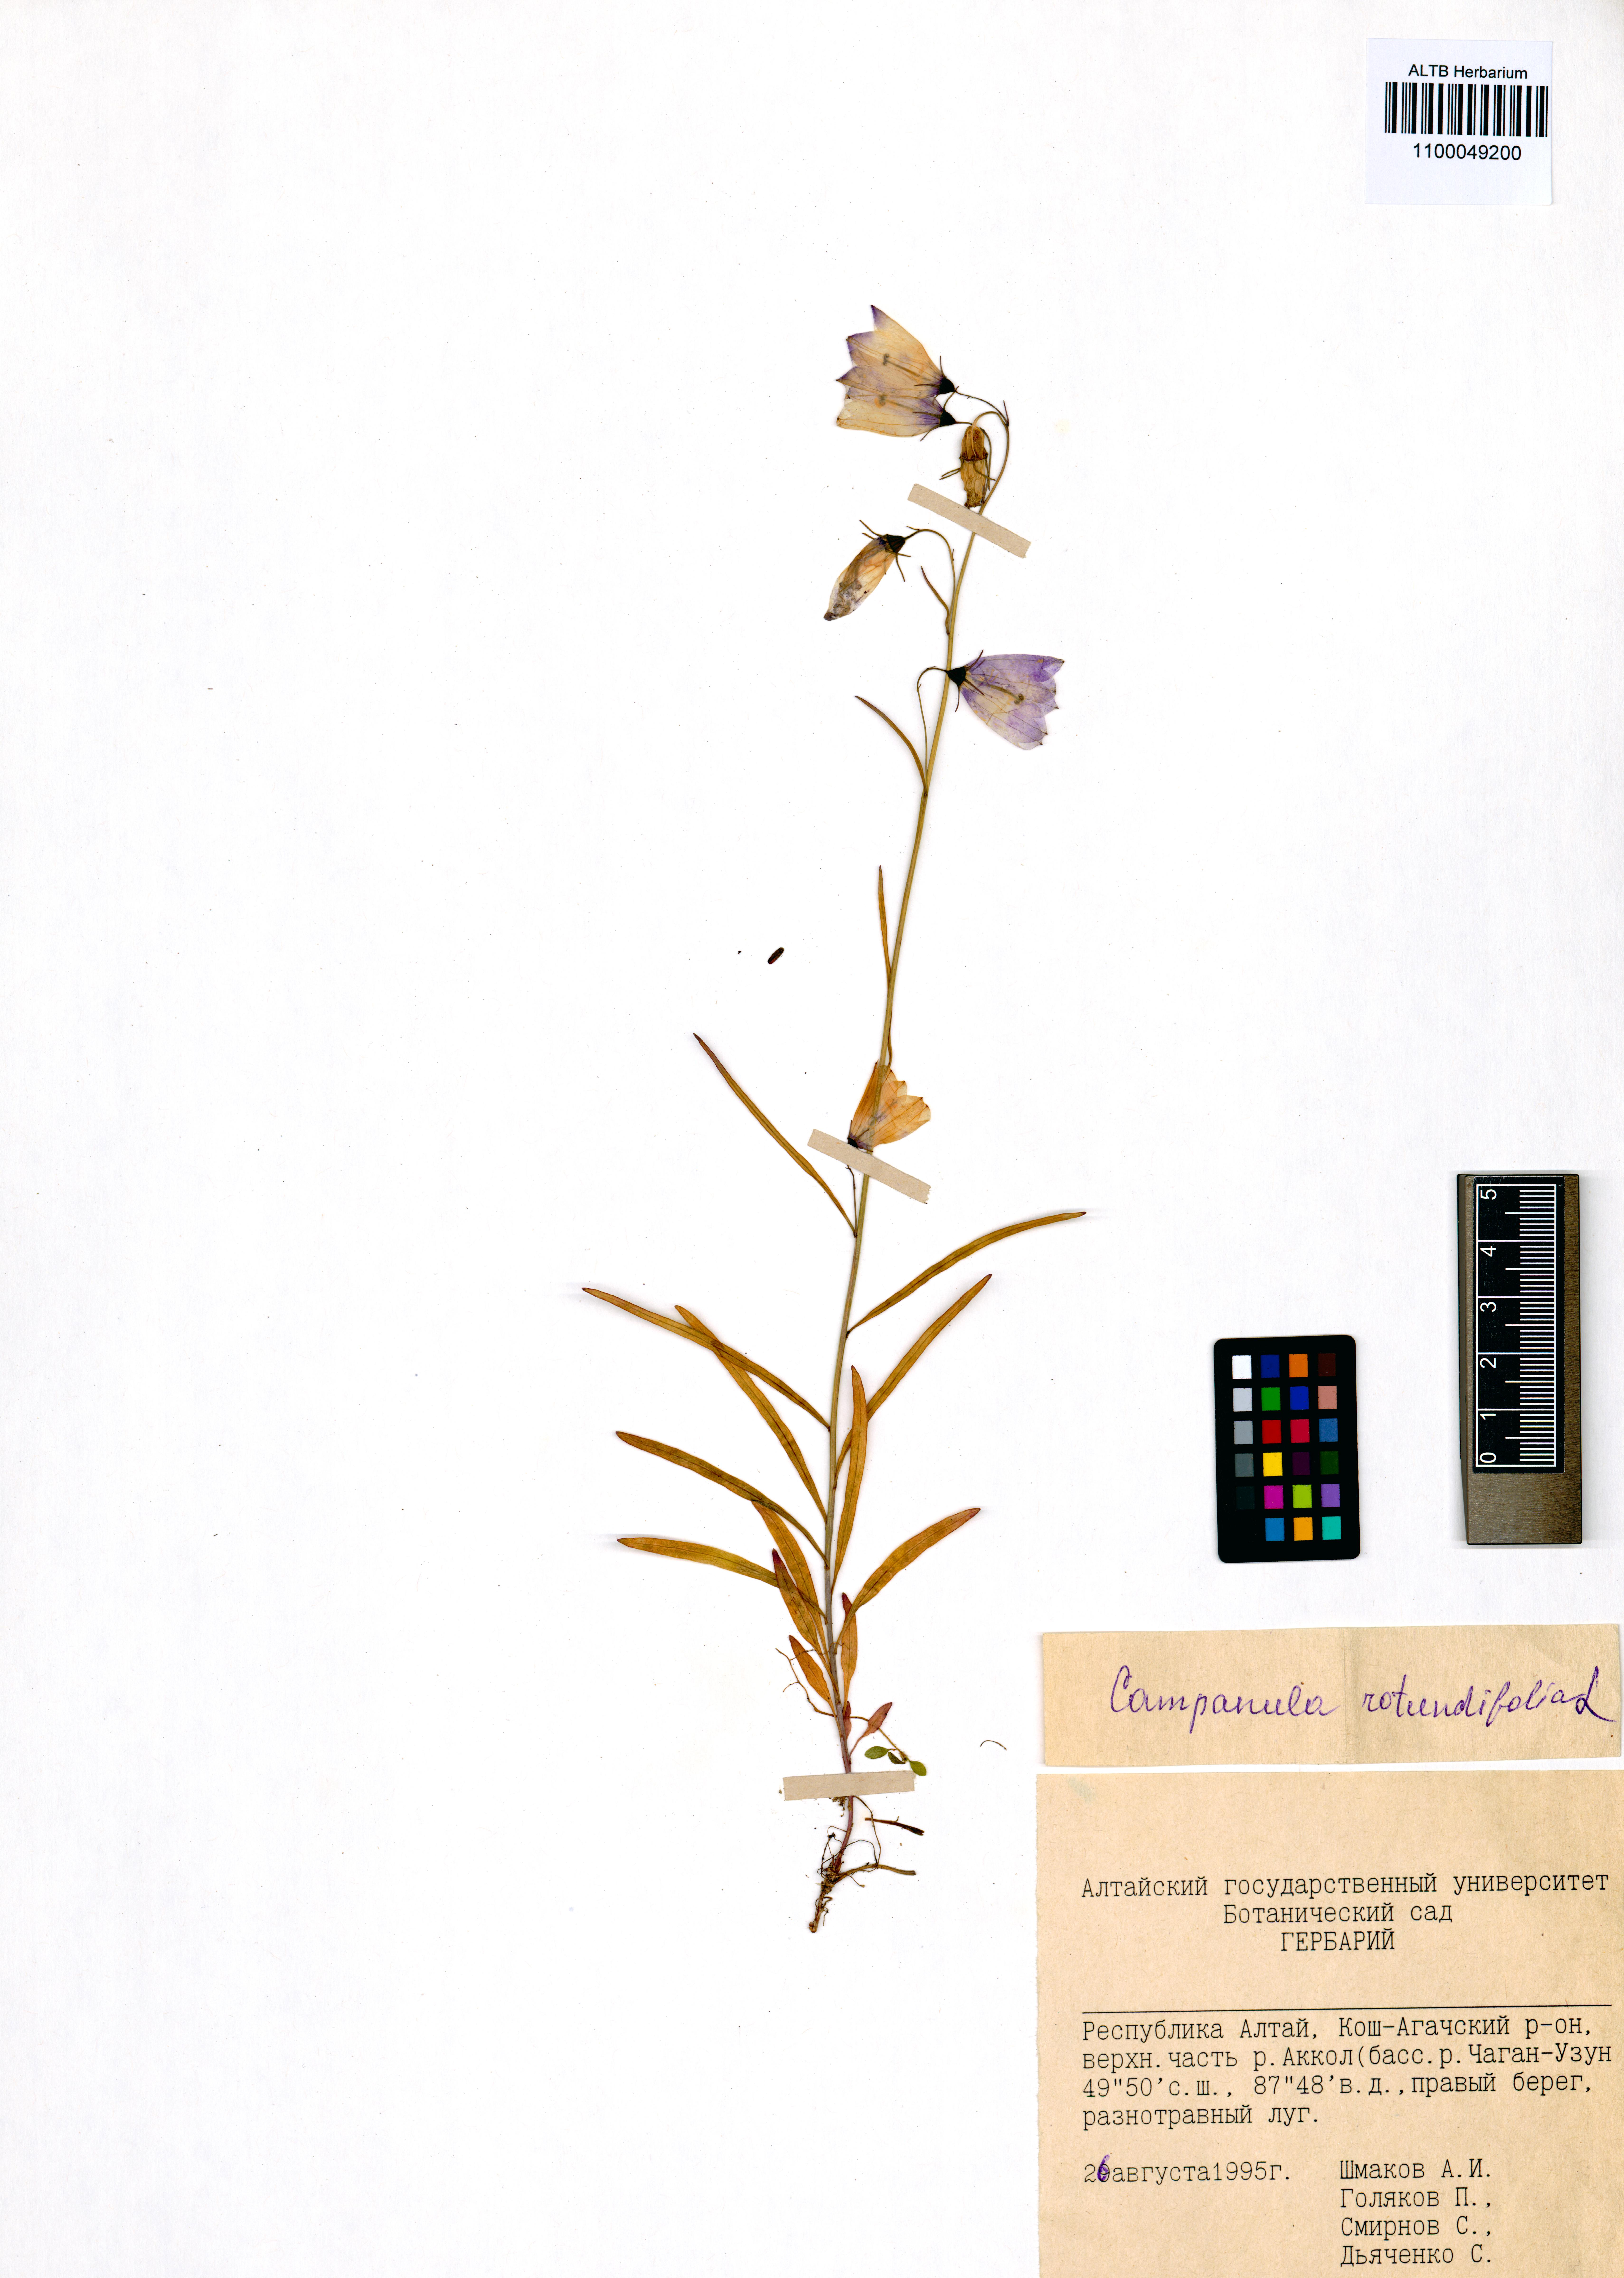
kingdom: Plantae
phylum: Tracheophyta
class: Magnoliopsida
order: Asterales
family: Campanulaceae
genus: Campanula
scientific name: Campanula rotundifolia
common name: Harebell
